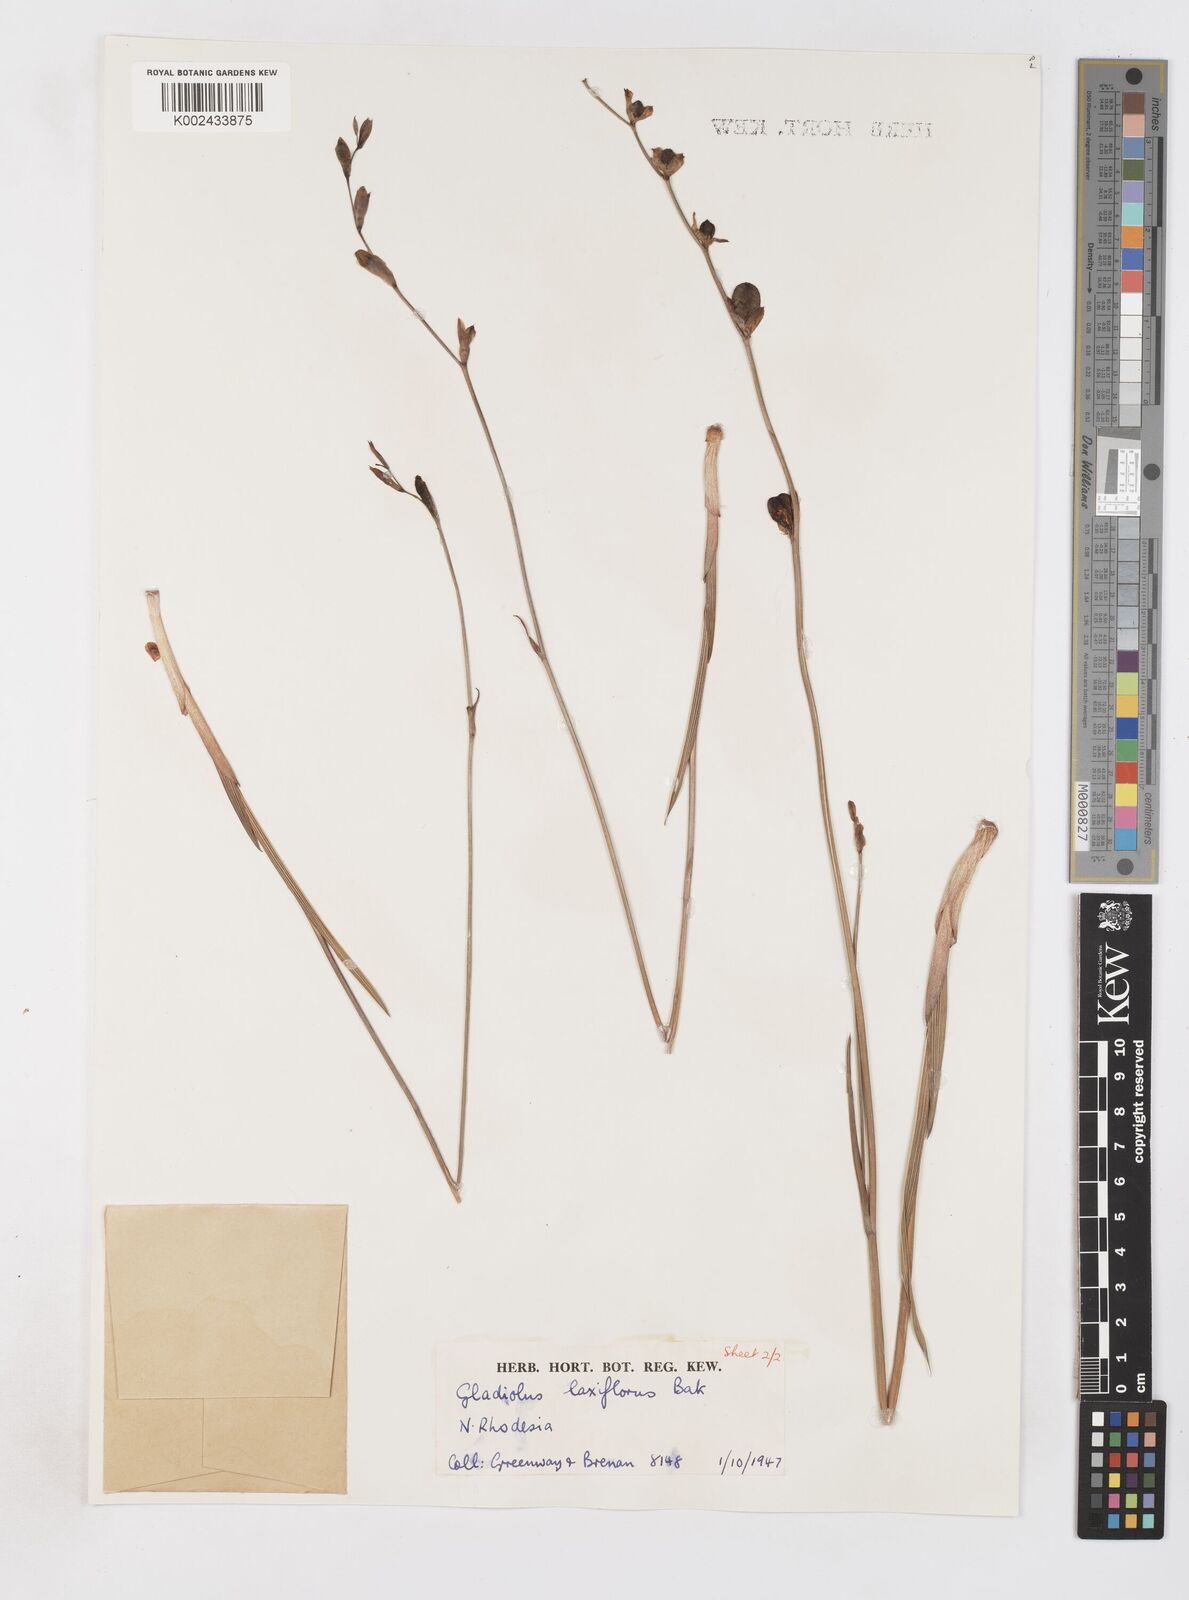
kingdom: Plantae
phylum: Tracheophyta
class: Liliopsida
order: Asparagales
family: Iridaceae
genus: Gladiolus
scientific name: Gladiolus laxiflorus
